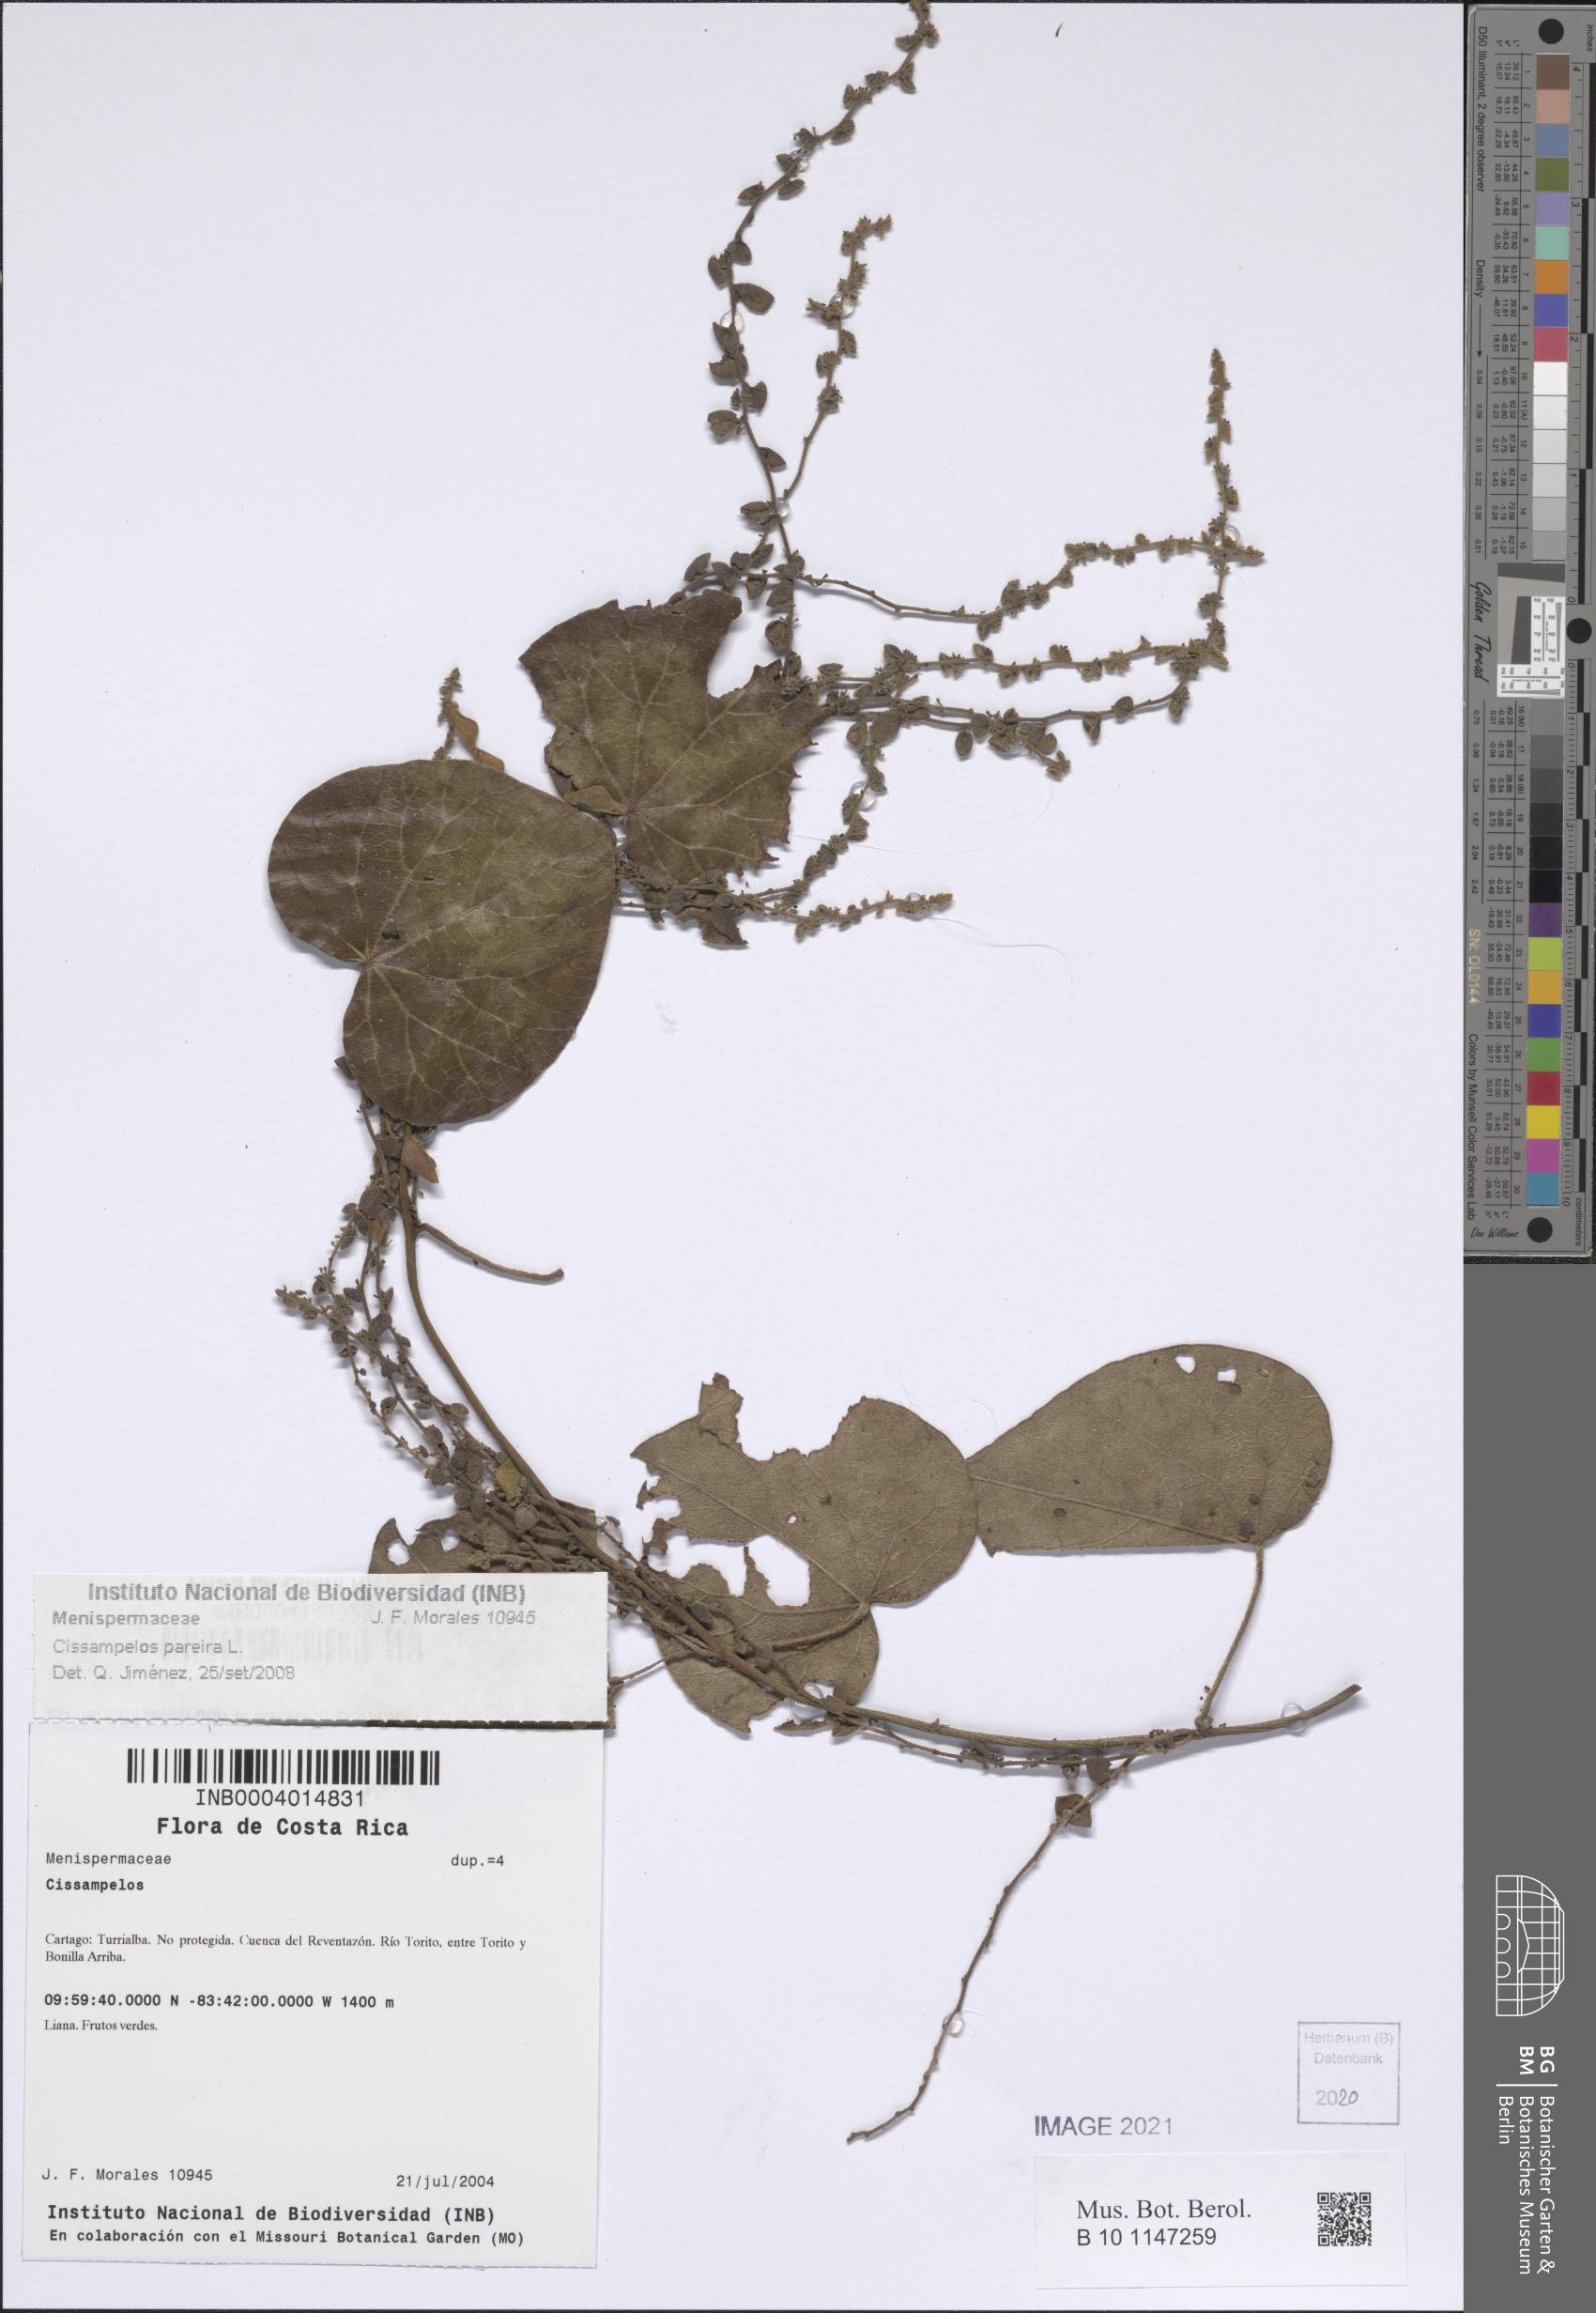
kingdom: Plantae
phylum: Tracheophyta
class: Magnoliopsida
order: Ranunculales
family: Menispermaceae
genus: Cissampelos
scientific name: Cissampelos pareira
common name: Velvetleaf
